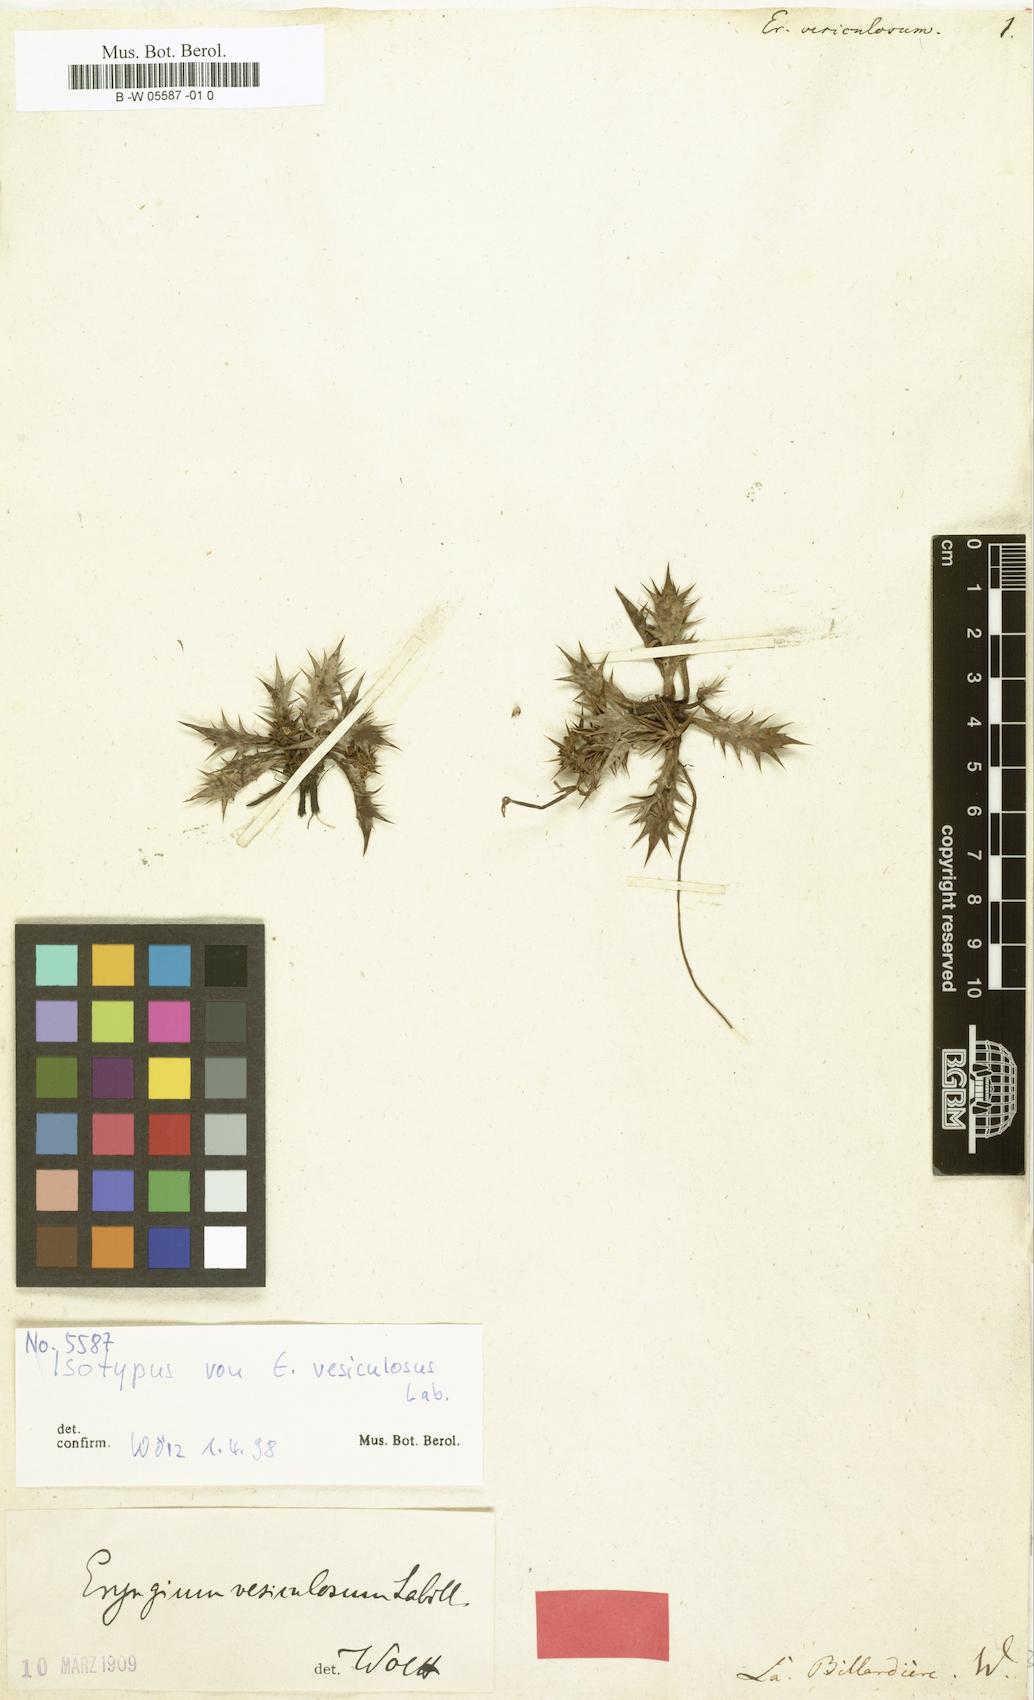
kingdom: Plantae
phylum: Tracheophyta
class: Magnoliopsida
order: Apiales
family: Apiaceae
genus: Eryngium
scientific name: Eryngium vesiculosum
